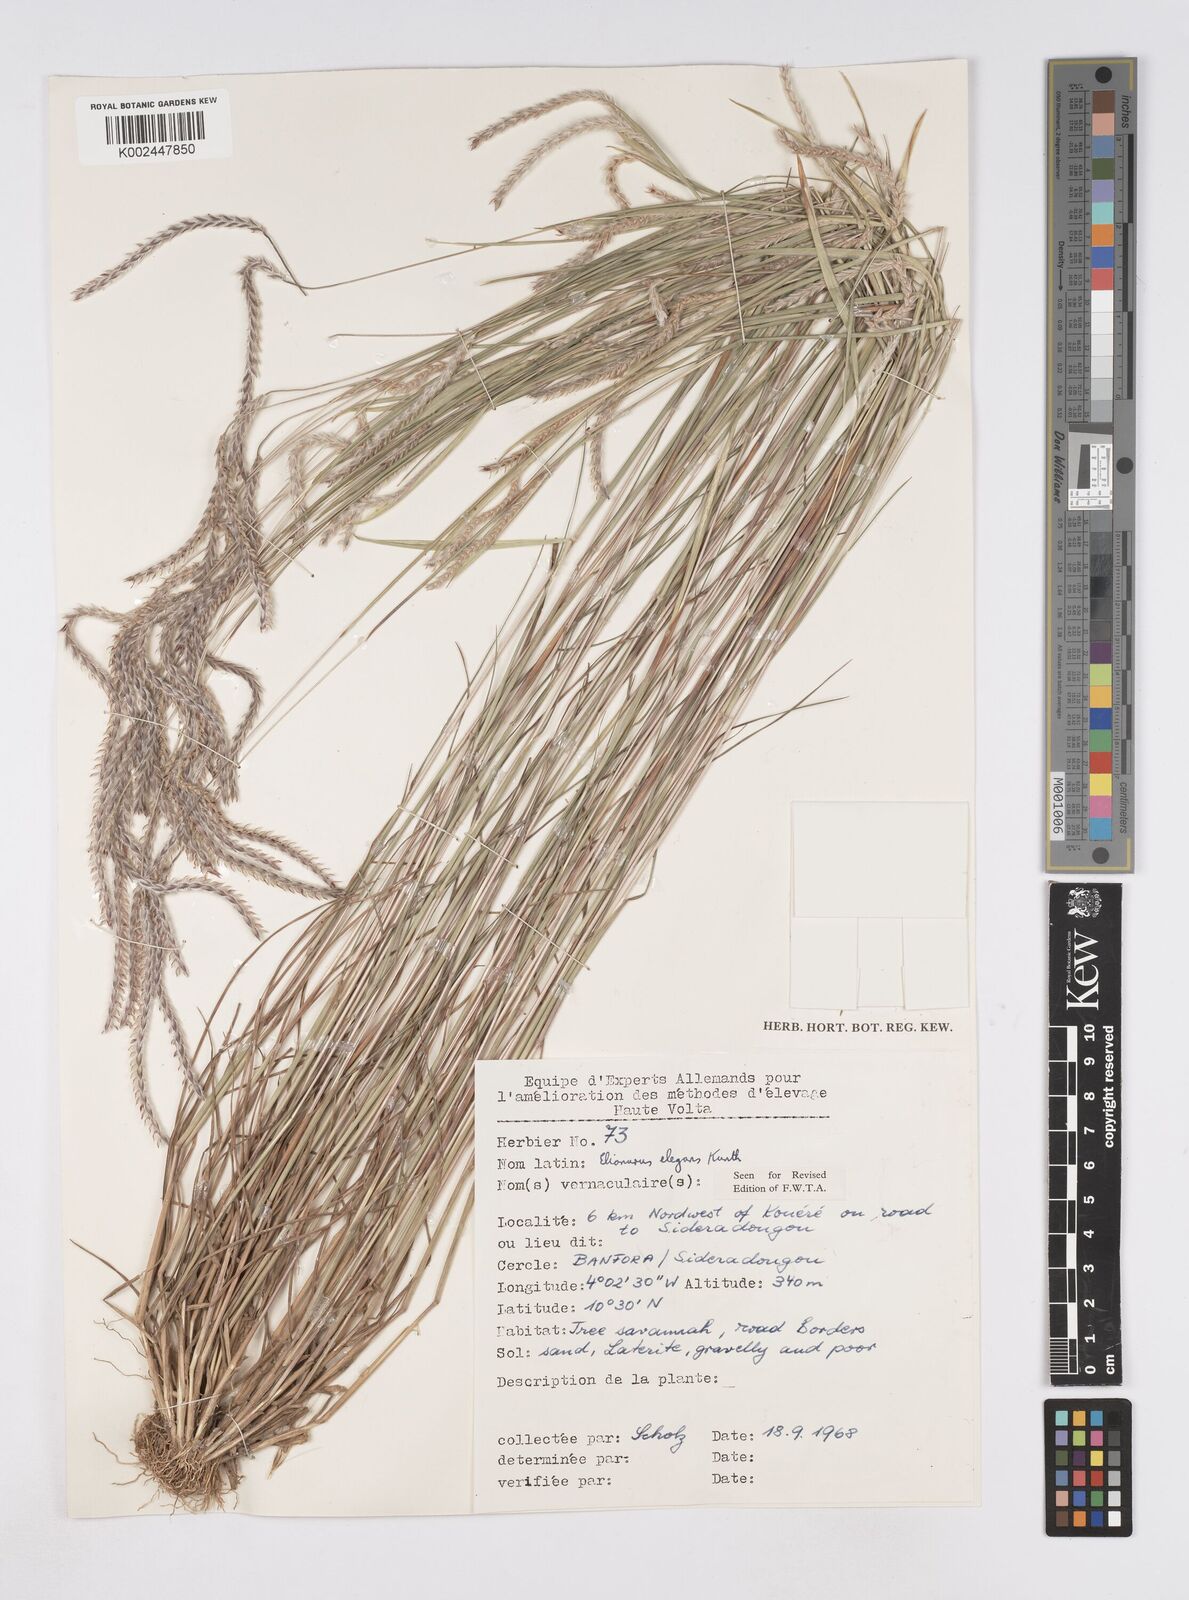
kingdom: Plantae
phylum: Tracheophyta
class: Liliopsida
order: Poales
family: Poaceae
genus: Elionurus
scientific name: Elionurus elegans
